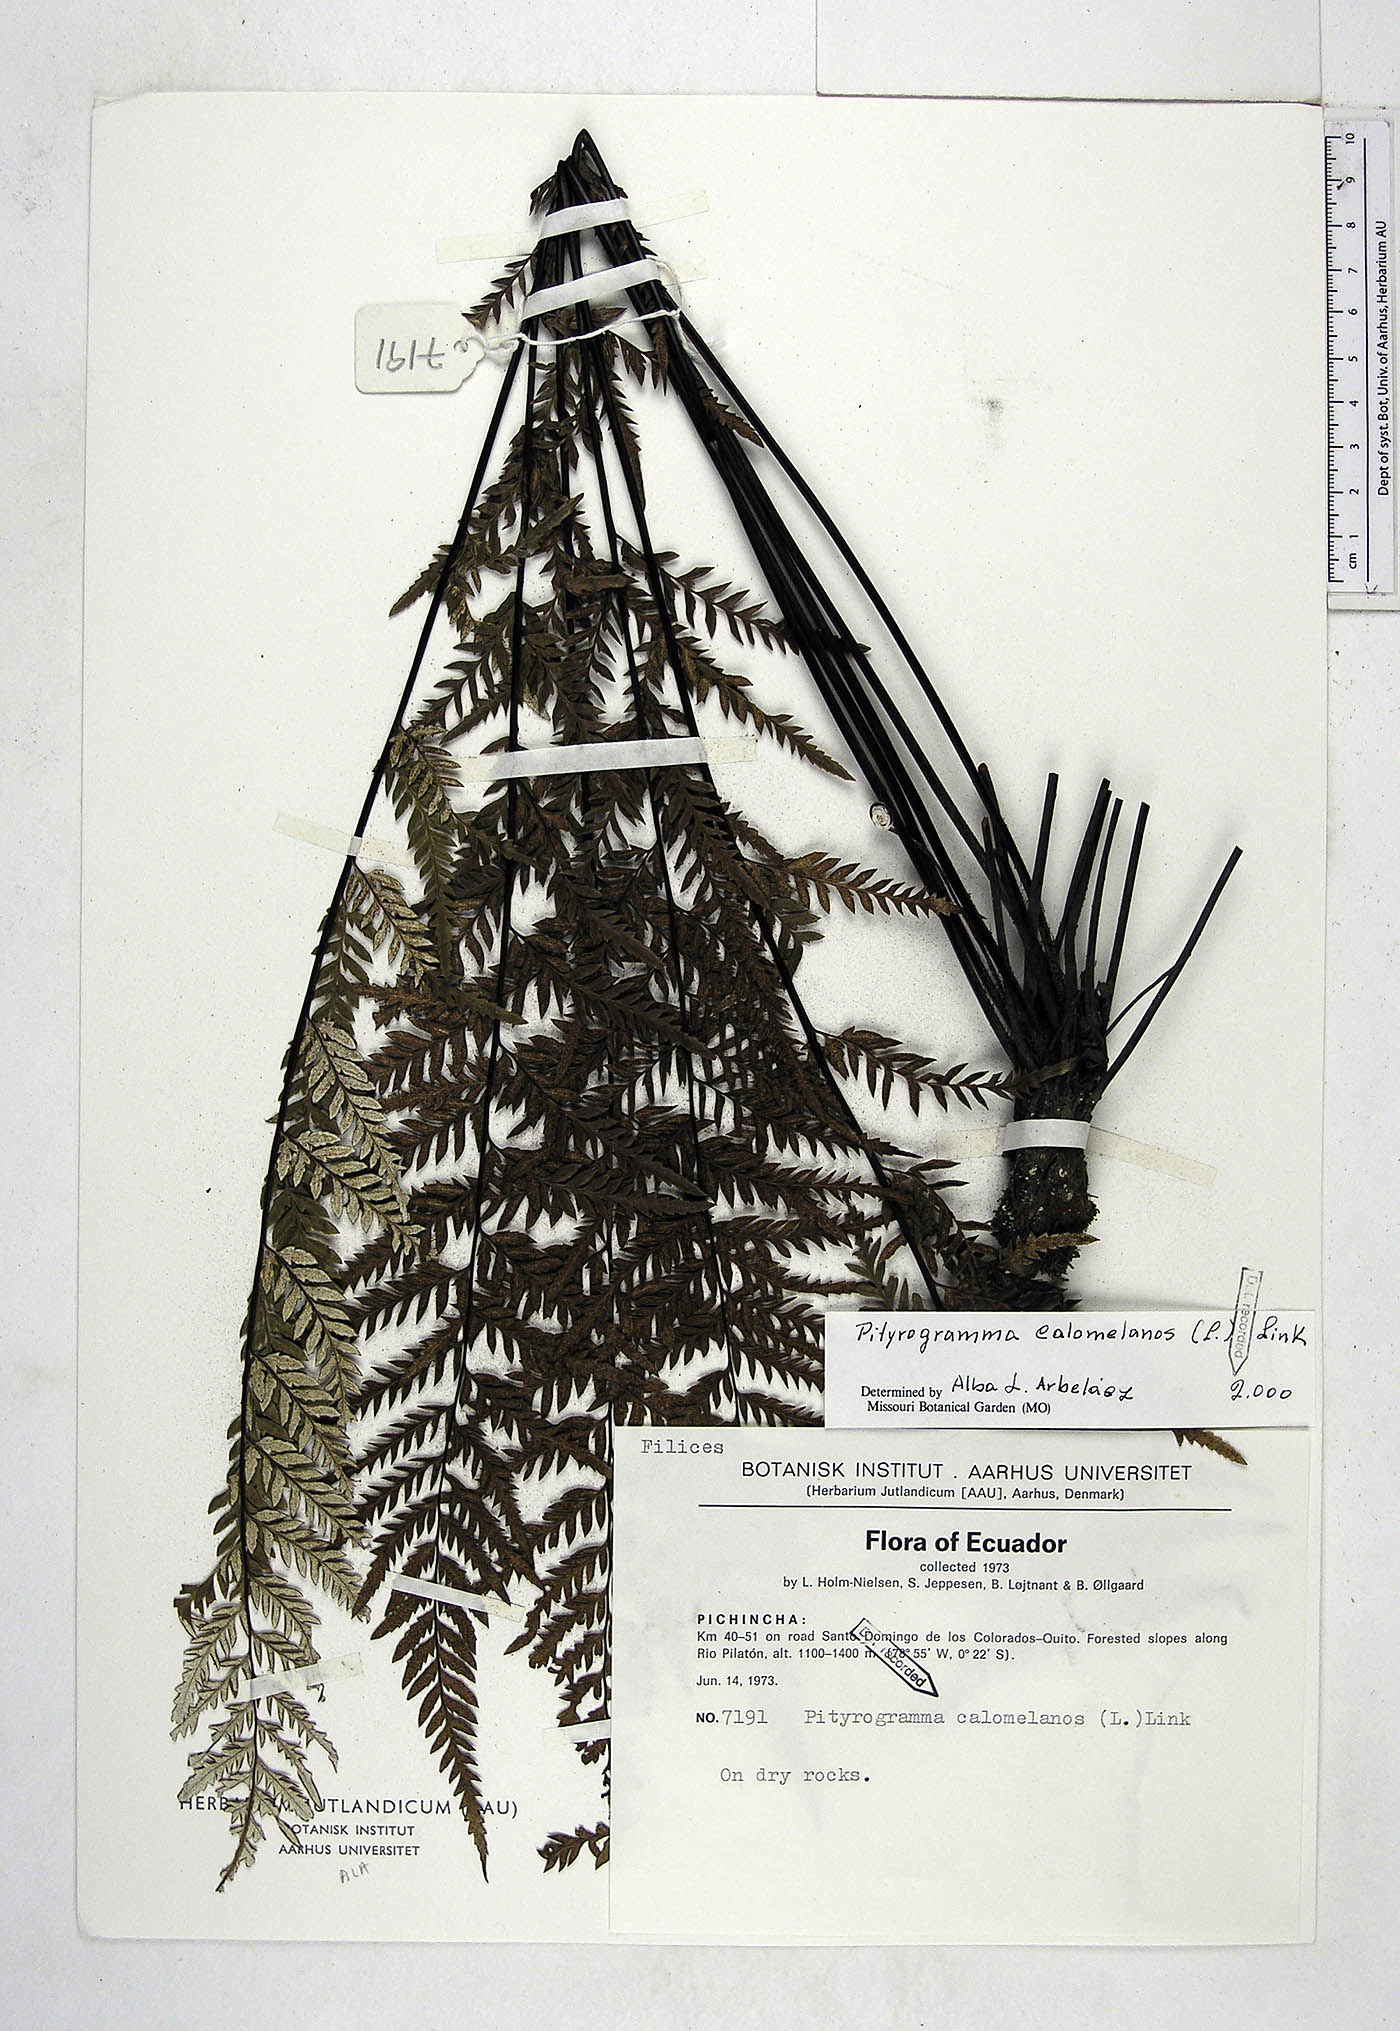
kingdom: Plantae
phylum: Tracheophyta
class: Polypodiopsida
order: Polypodiales
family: Pteridaceae
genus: Pityrogramma
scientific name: Pityrogramma calomelanos
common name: Dixie silverback fern
